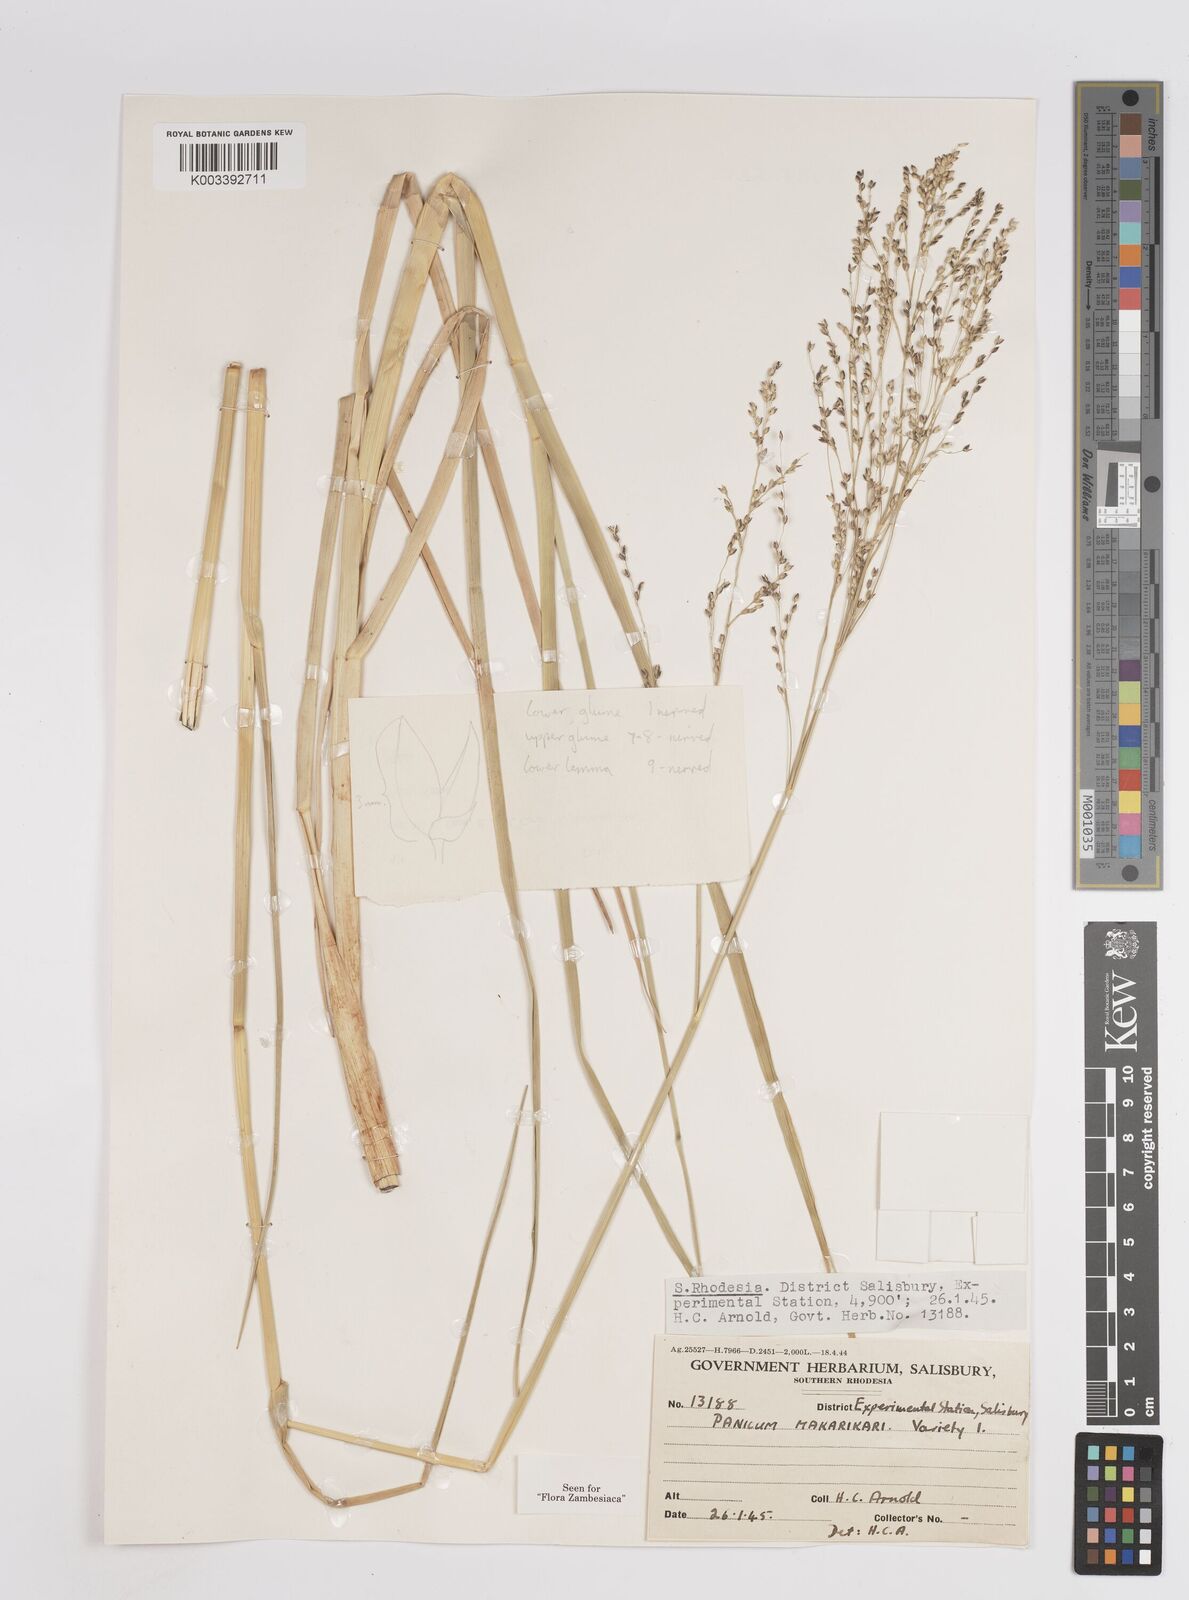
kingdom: Plantae
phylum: Tracheophyta
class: Liliopsida
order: Poales
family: Poaceae
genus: Panicum
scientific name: Panicum coloratum
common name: Kleingrass
